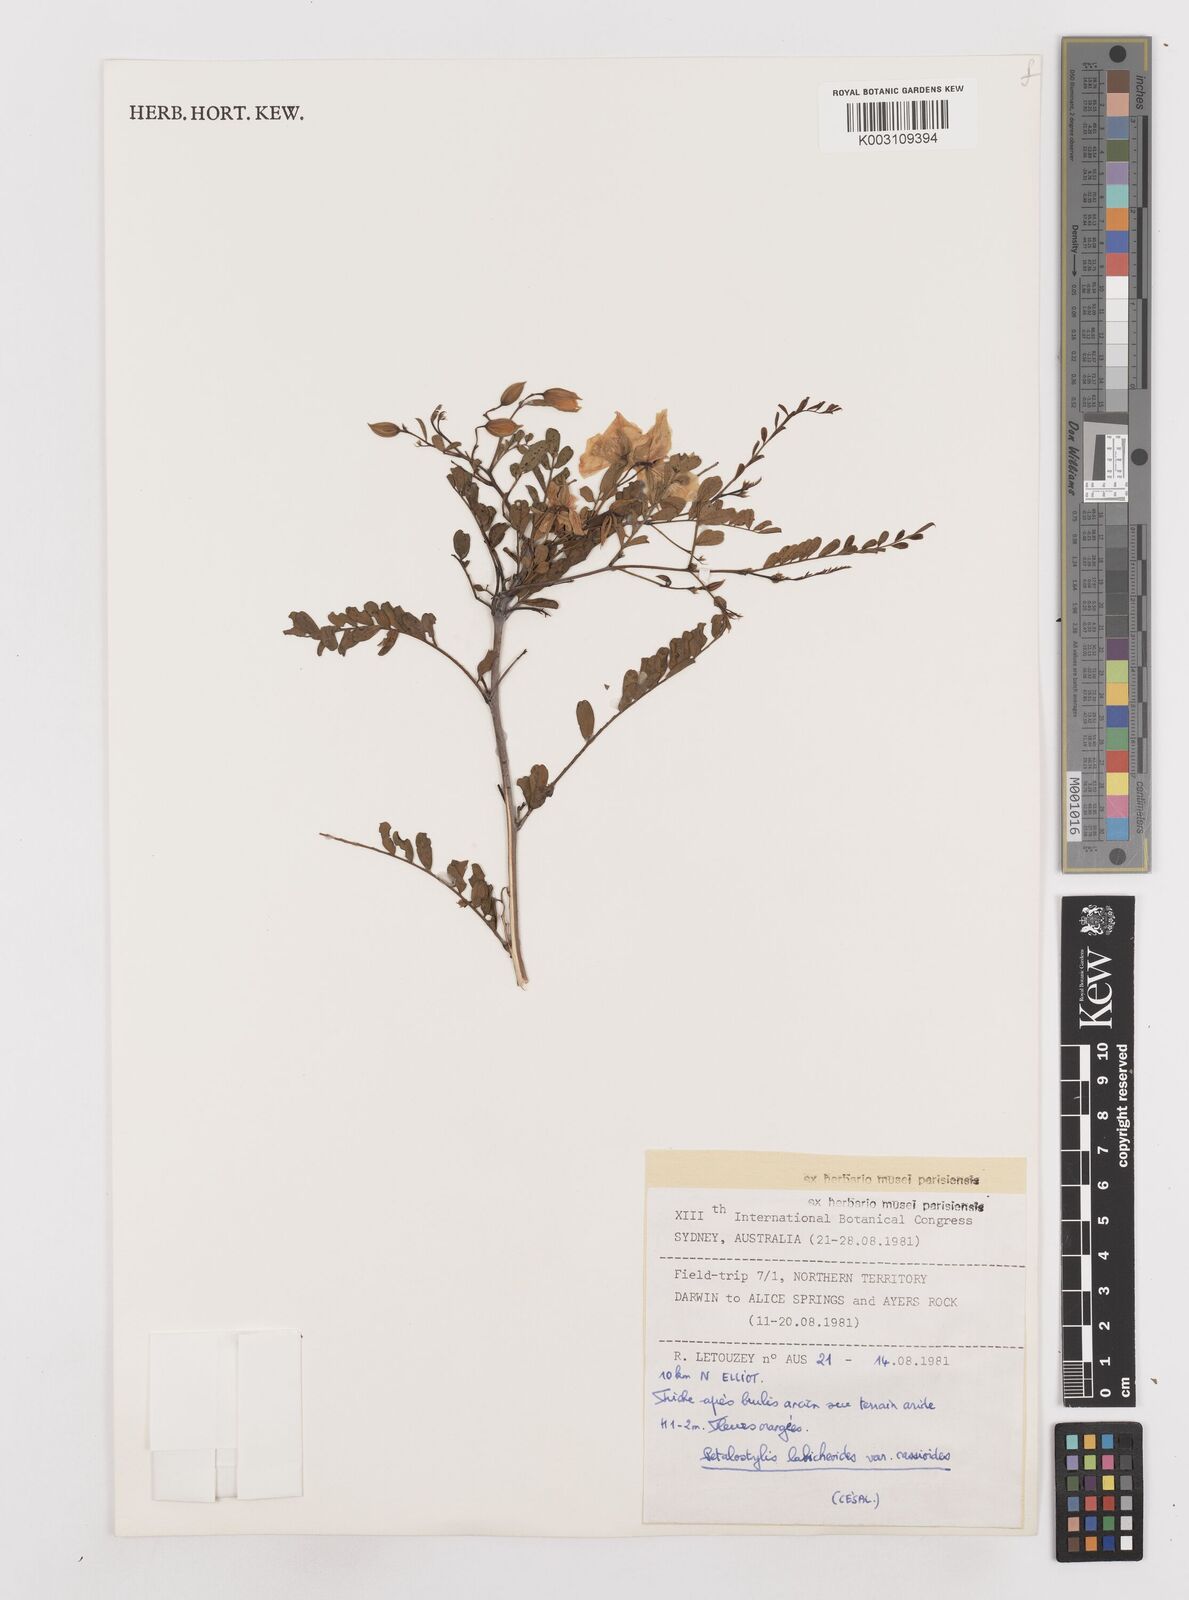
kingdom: Plantae
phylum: Tracheophyta
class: Magnoliopsida
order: Fabales
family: Fabaceae
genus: Petalostylis
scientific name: Petalostylis labicheoides
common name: Butterfly bush
